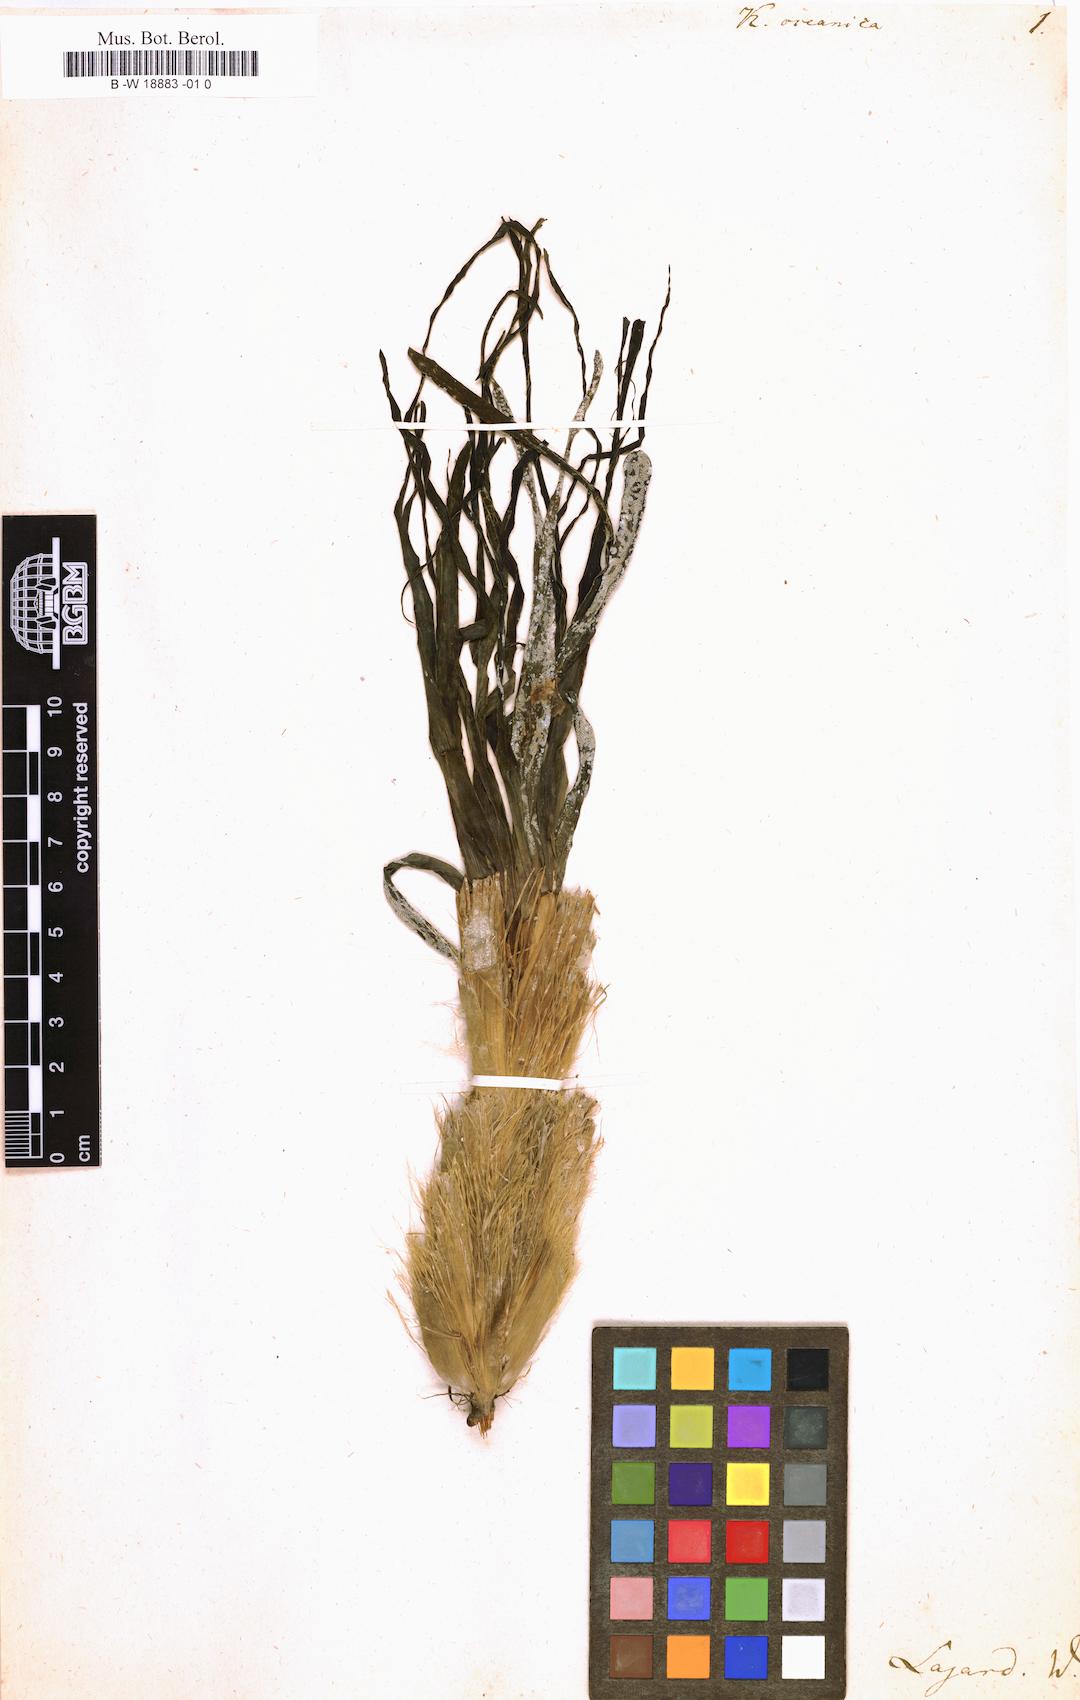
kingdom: Plantae
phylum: Tracheophyta
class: Liliopsida
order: Alismatales
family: Posidoniaceae
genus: Posidonia
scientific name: Posidonia oceanica
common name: Mediterranean tapeweed
